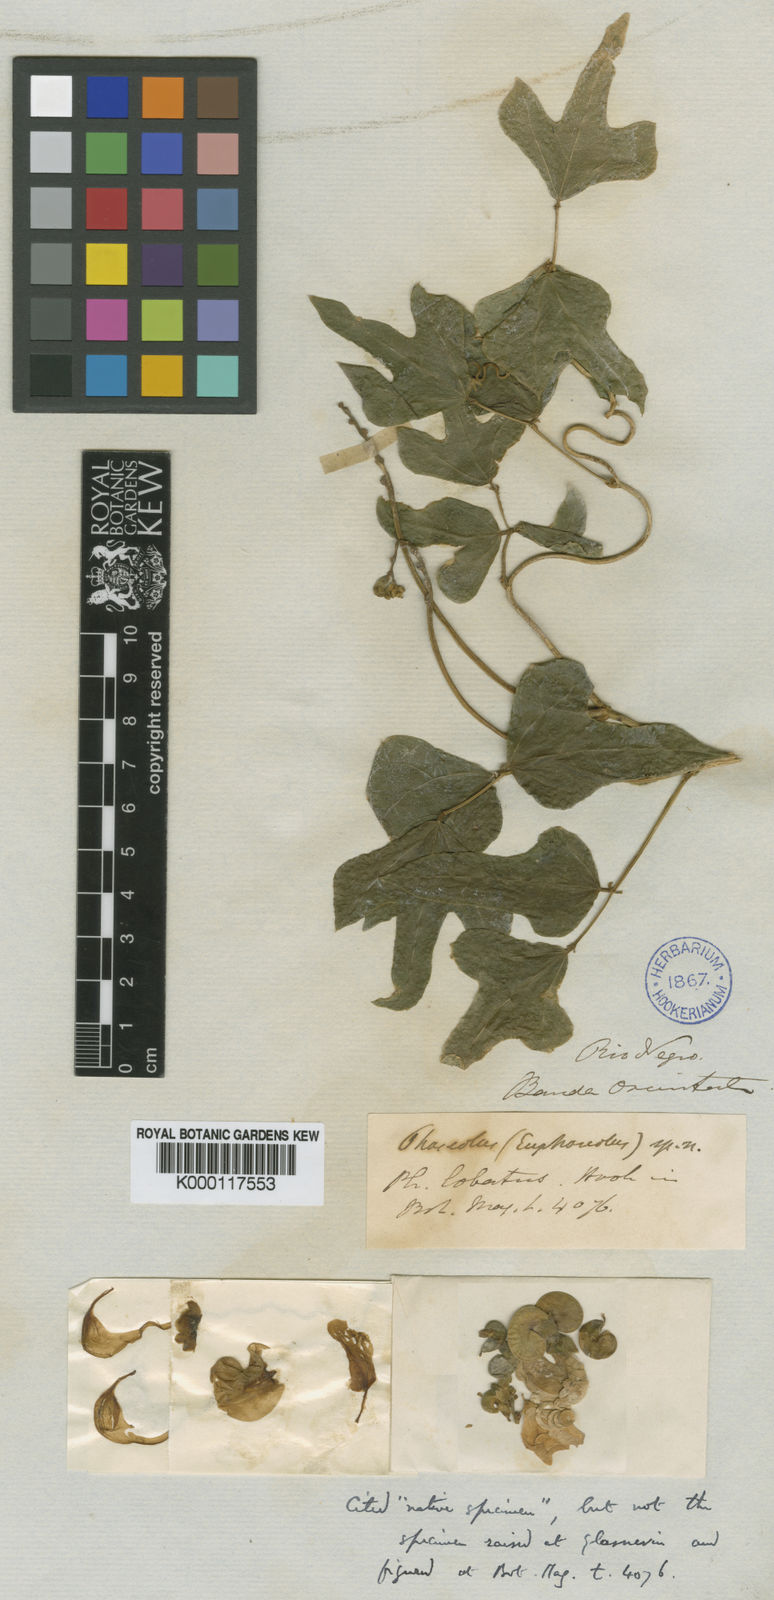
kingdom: Plantae
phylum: Tracheophyta
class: Magnoliopsida
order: Fabales
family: Fabaceae
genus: Helicotropis
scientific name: Helicotropis hookeri
